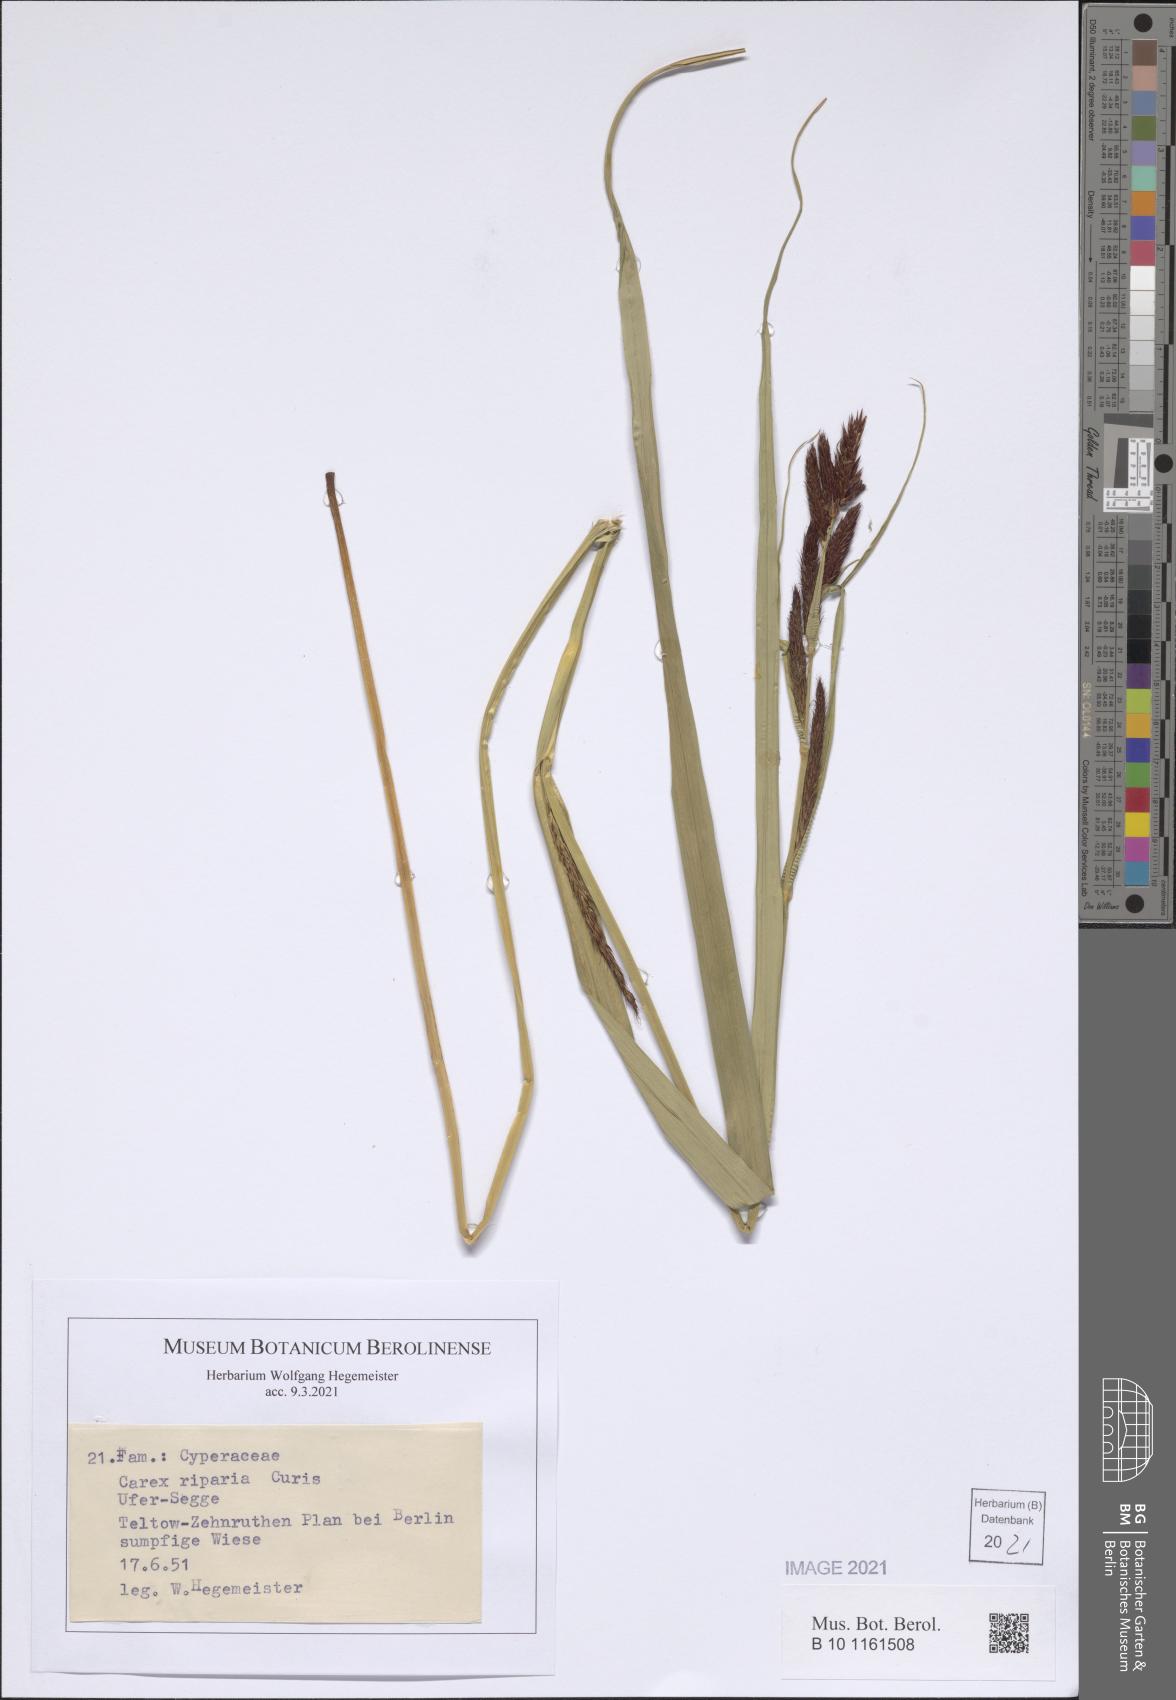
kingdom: Plantae
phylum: Tracheophyta
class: Liliopsida
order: Poales
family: Cyperaceae
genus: Carex
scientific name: Carex riparia
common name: Greater pond-sedge
